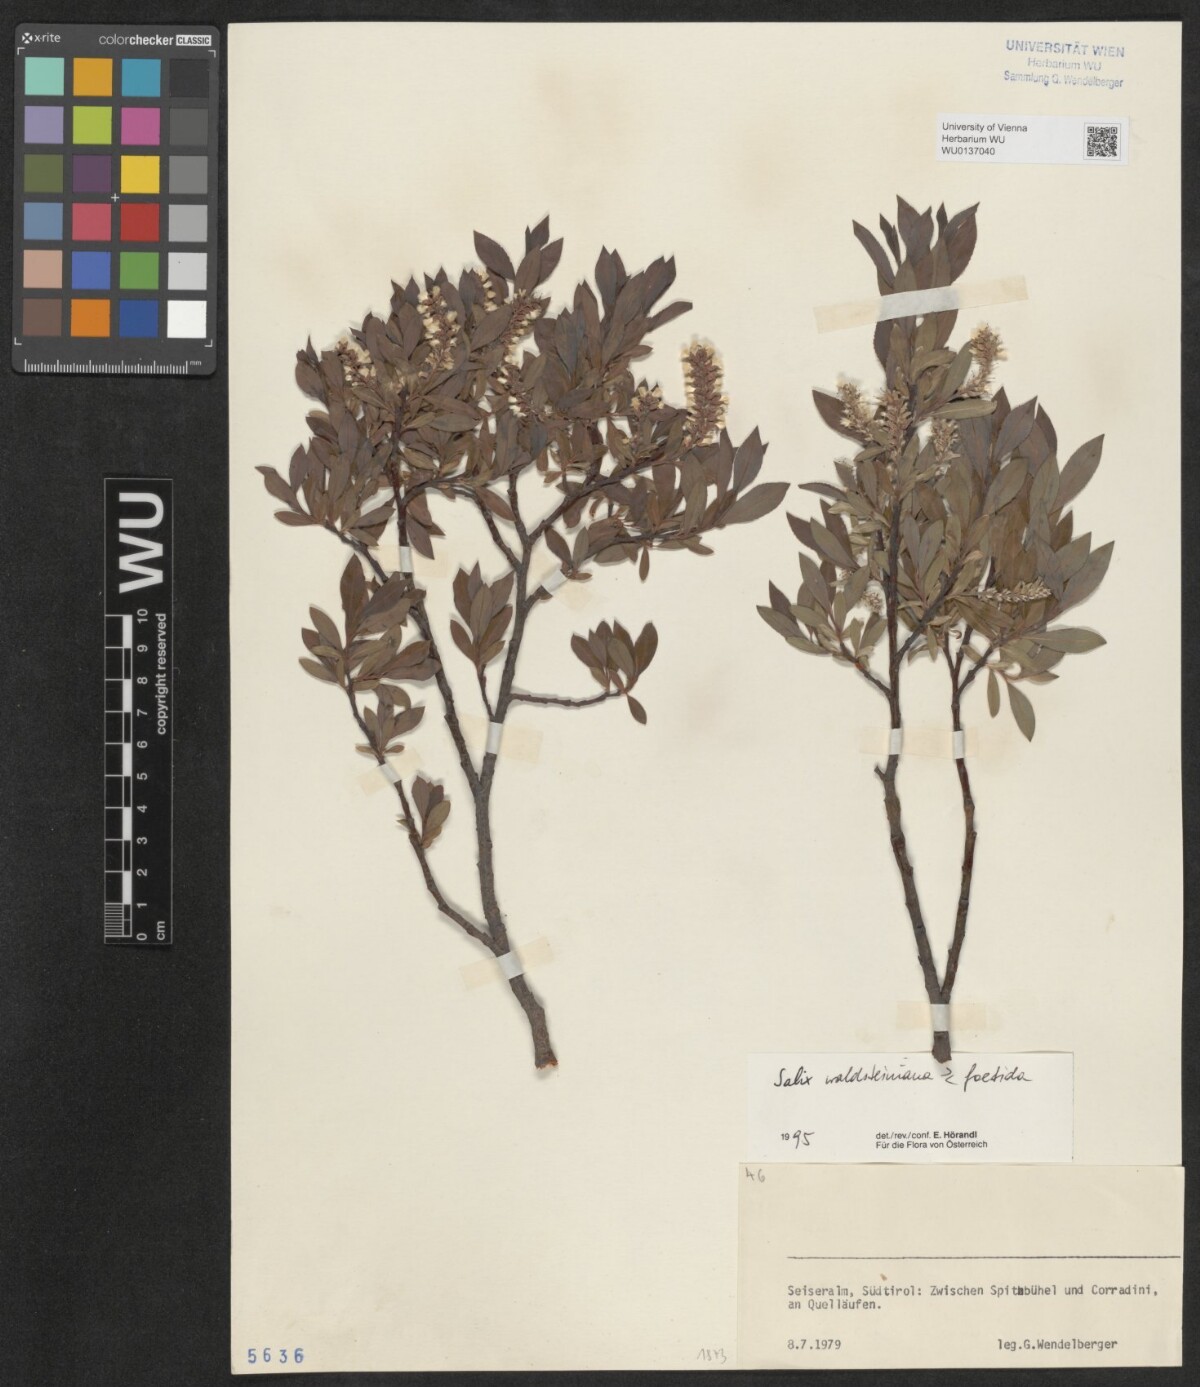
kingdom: Plantae
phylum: Tracheophyta
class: Magnoliopsida
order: Malpighiales
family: Salicaceae
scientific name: Salicaceae
